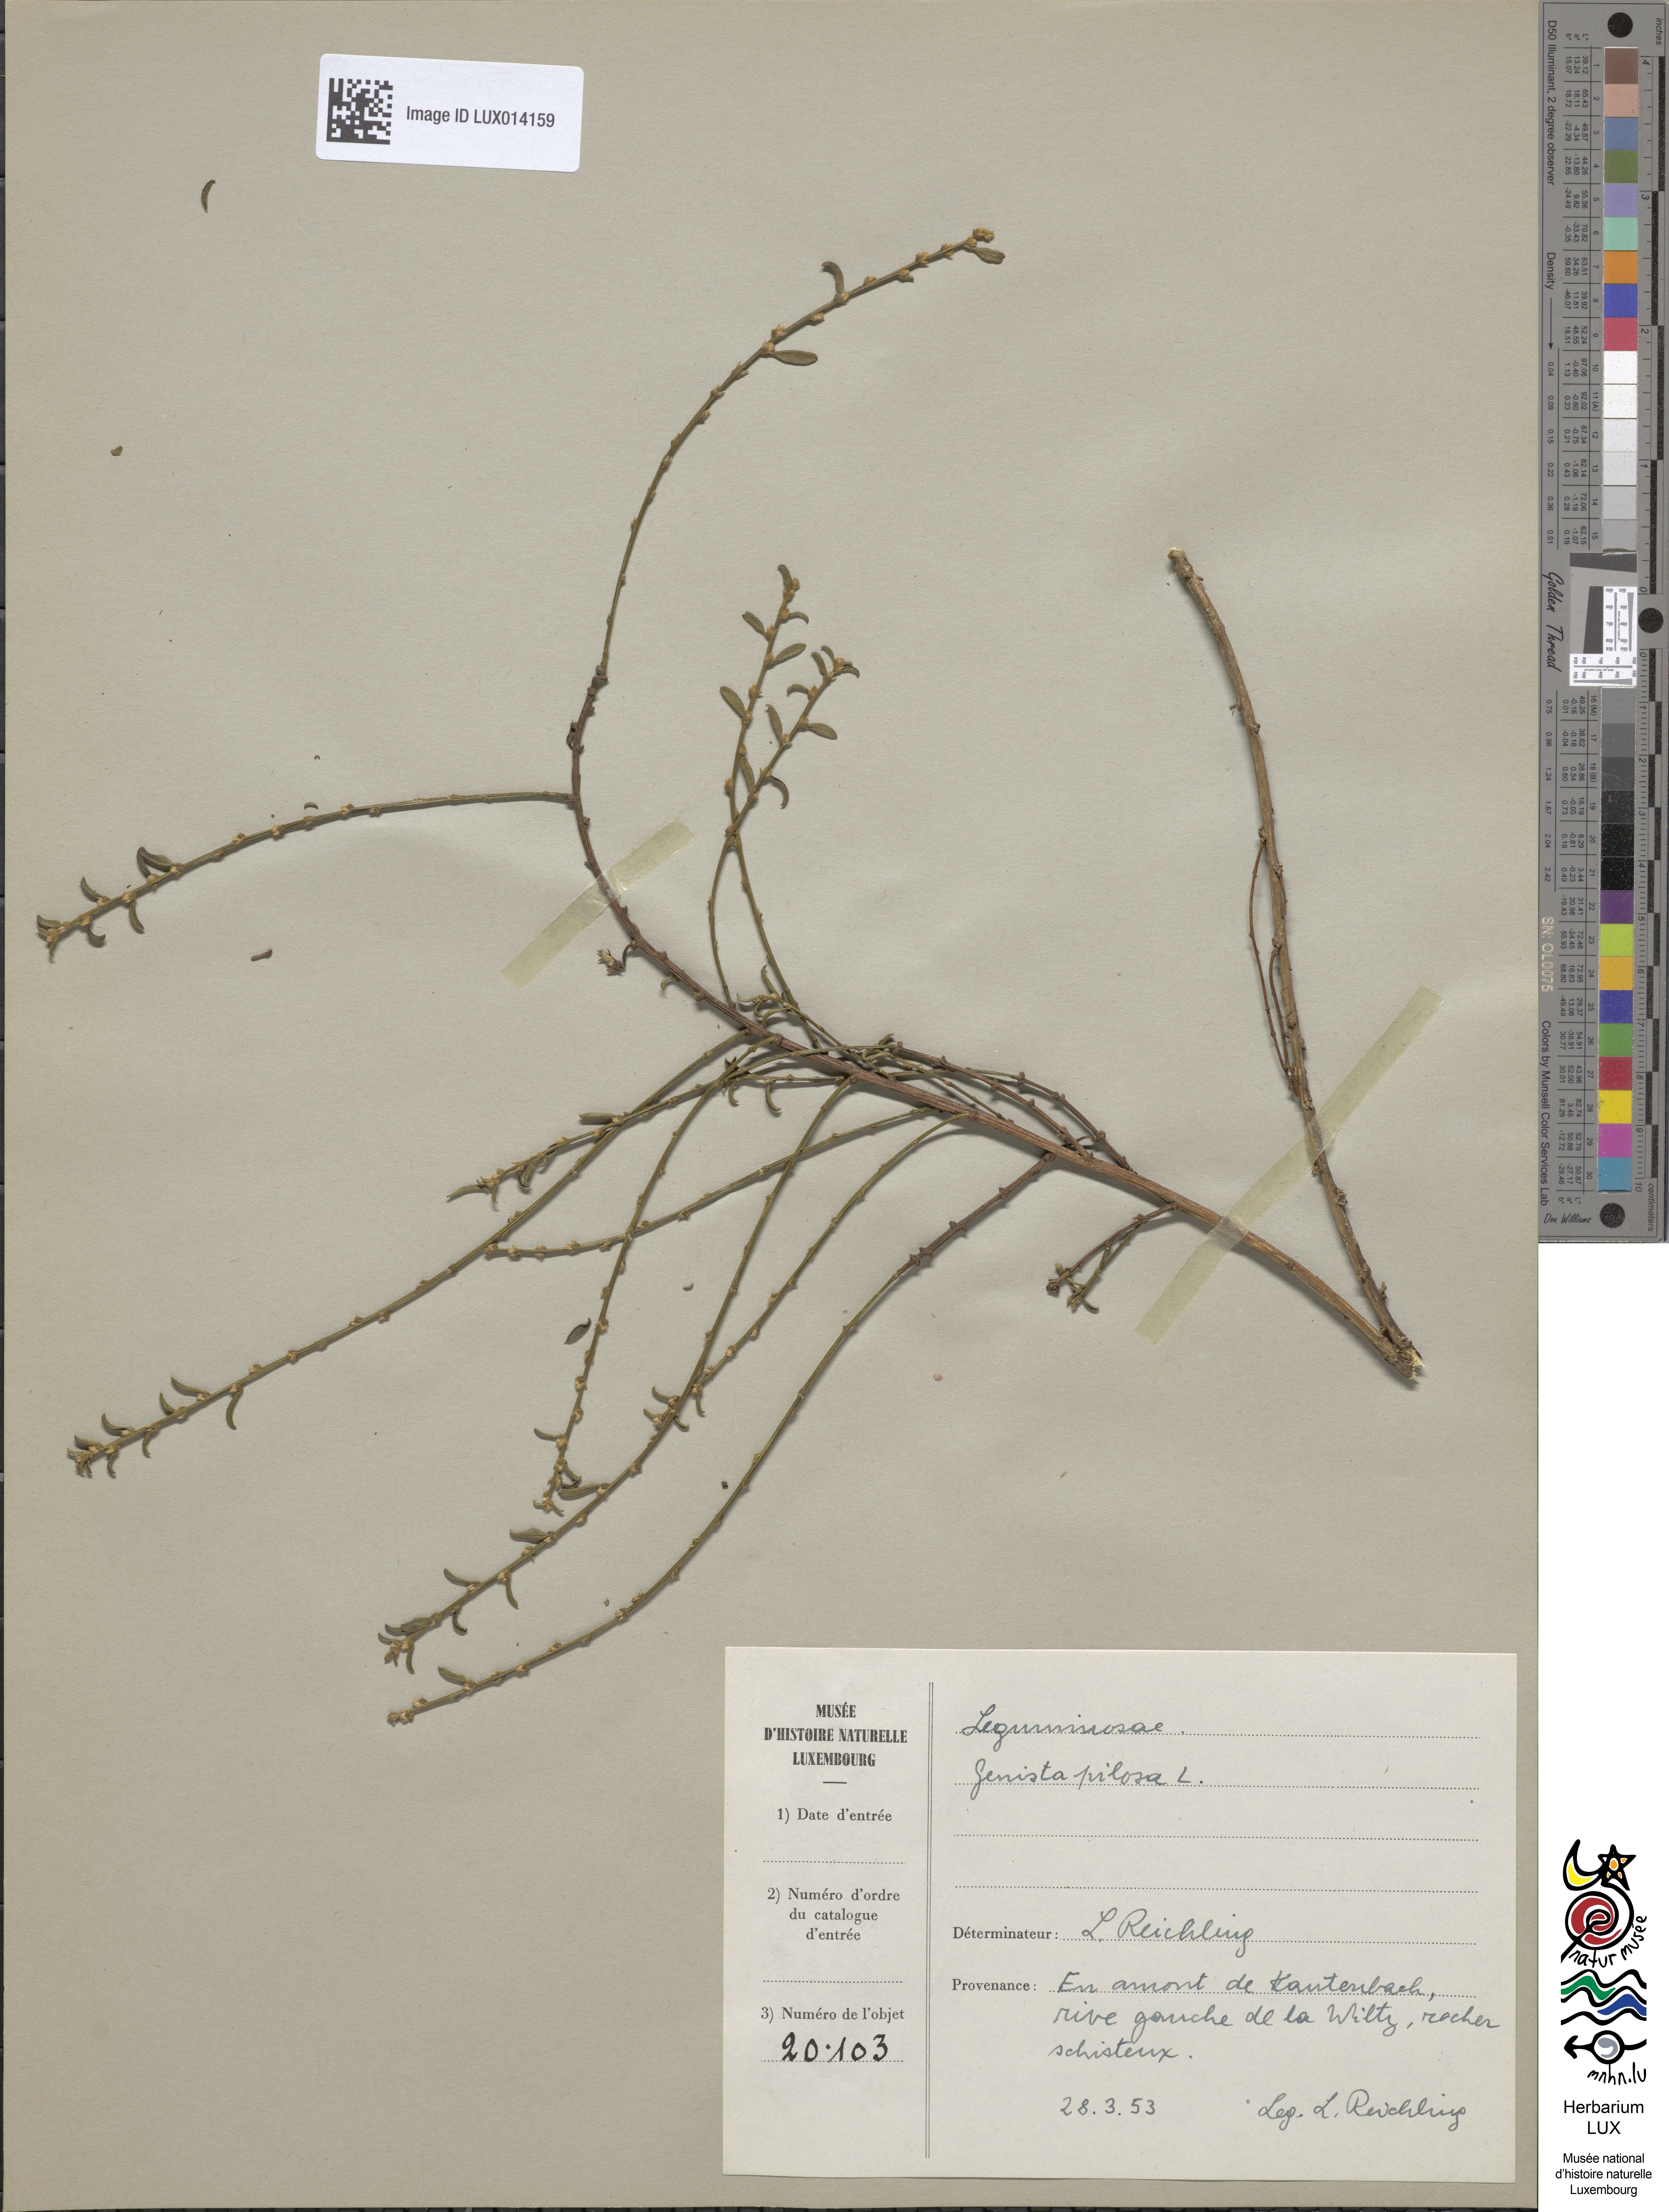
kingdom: Plantae
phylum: Tracheophyta
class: Magnoliopsida
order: Fabales
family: Fabaceae
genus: Genista
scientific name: Genista pilosa
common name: Hairy greenweed
